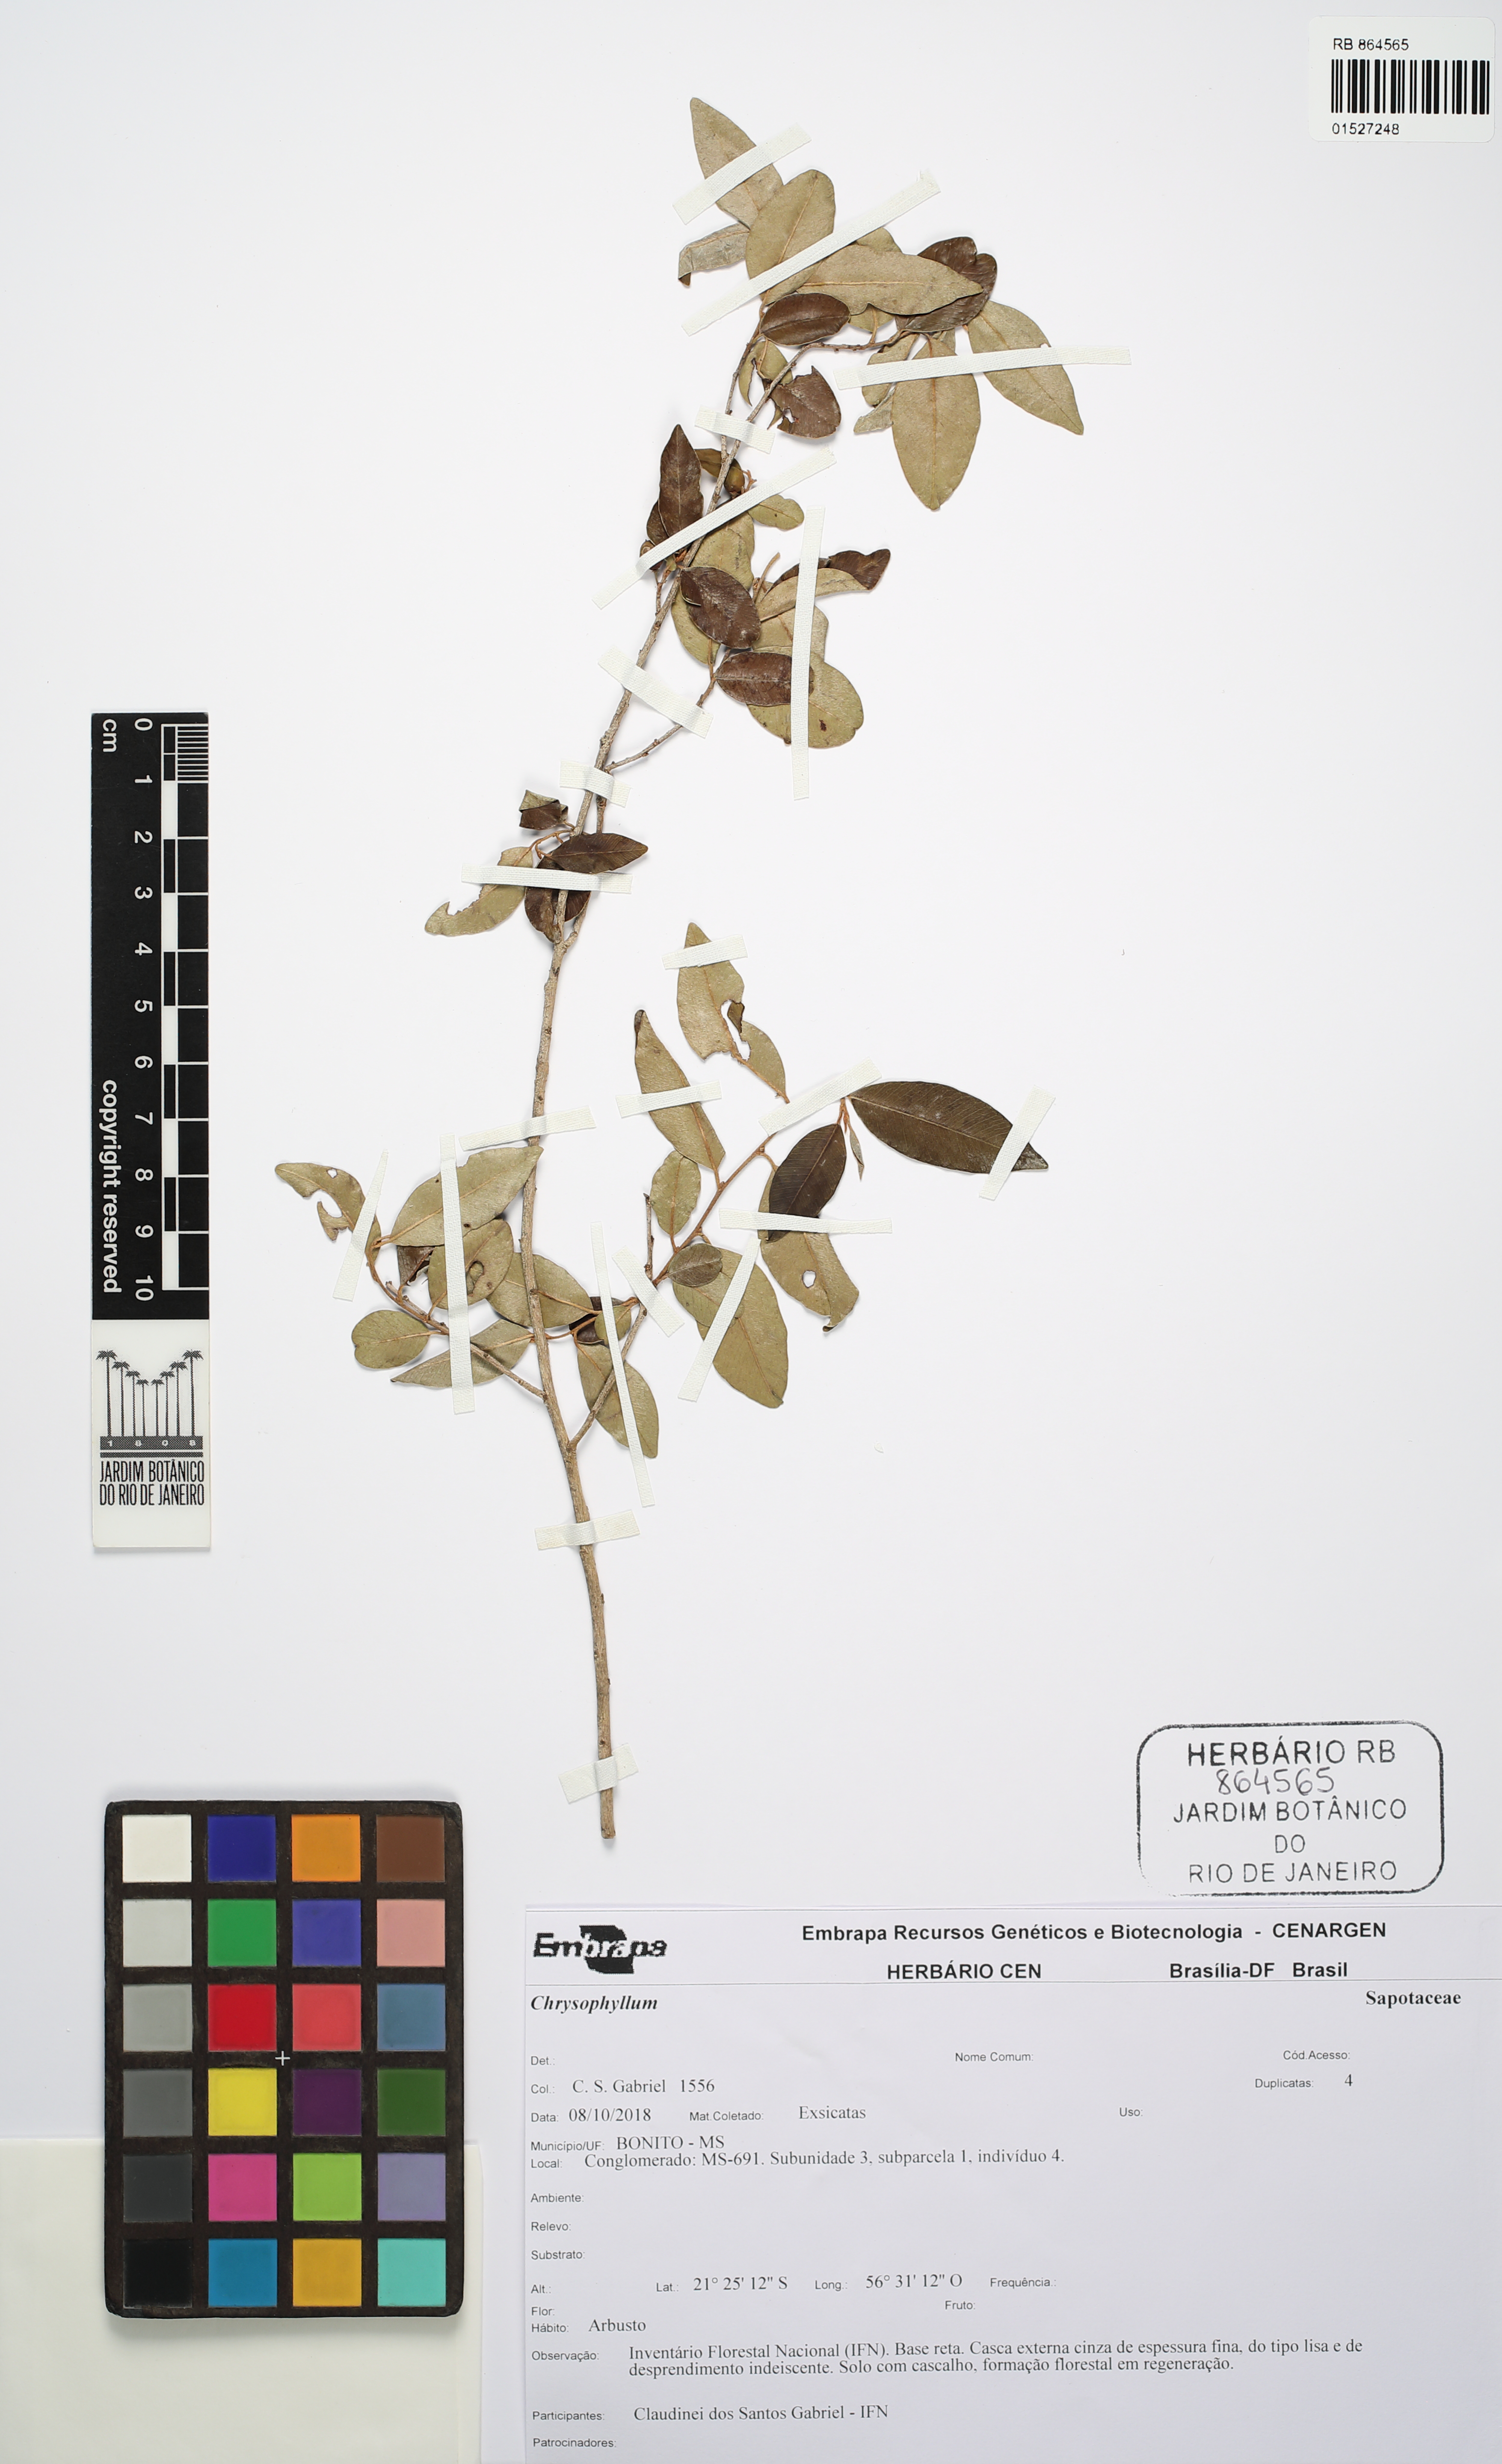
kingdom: Plantae
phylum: Tracheophyta
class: Magnoliopsida
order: Ericales
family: Sapotaceae
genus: Chrysophyllum
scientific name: Chrysophyllum
